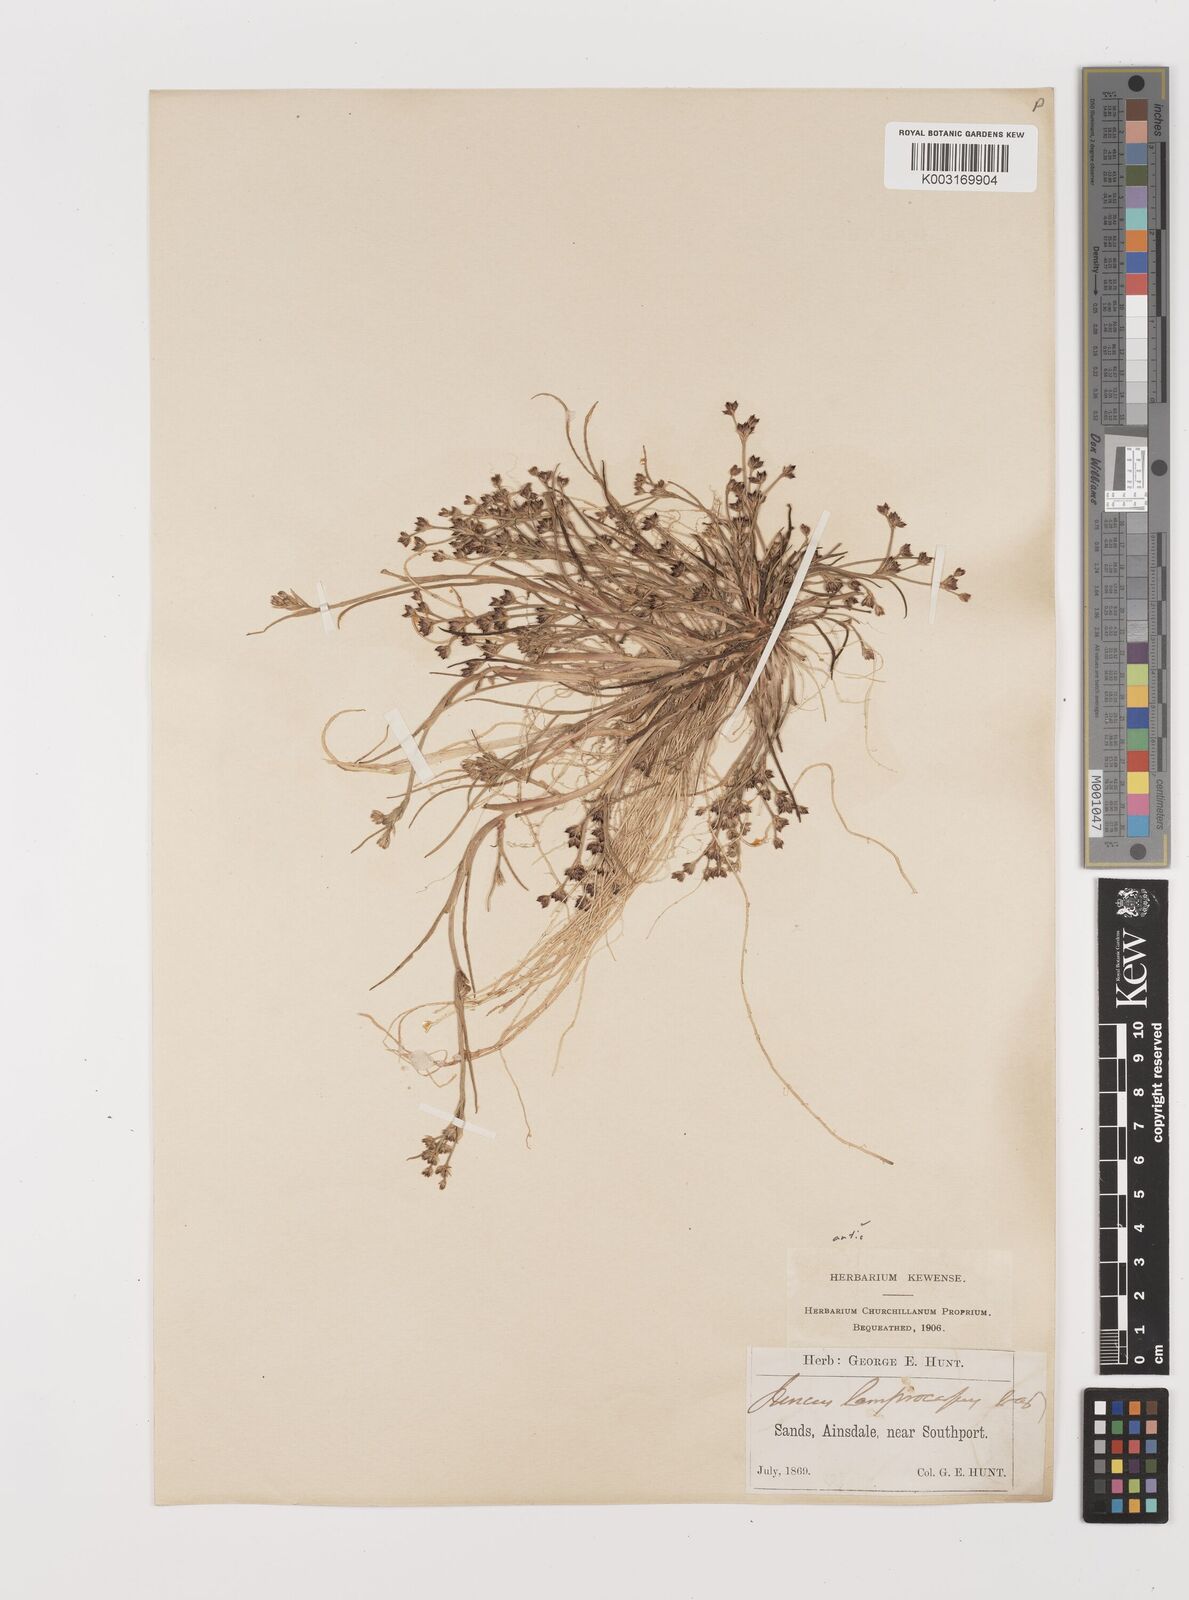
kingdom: Plantae
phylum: Tracheophyta
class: Liliopsida
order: Poales
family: Juncaceae
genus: Juncus
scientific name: Juncus articulatus
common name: Jointed rush
